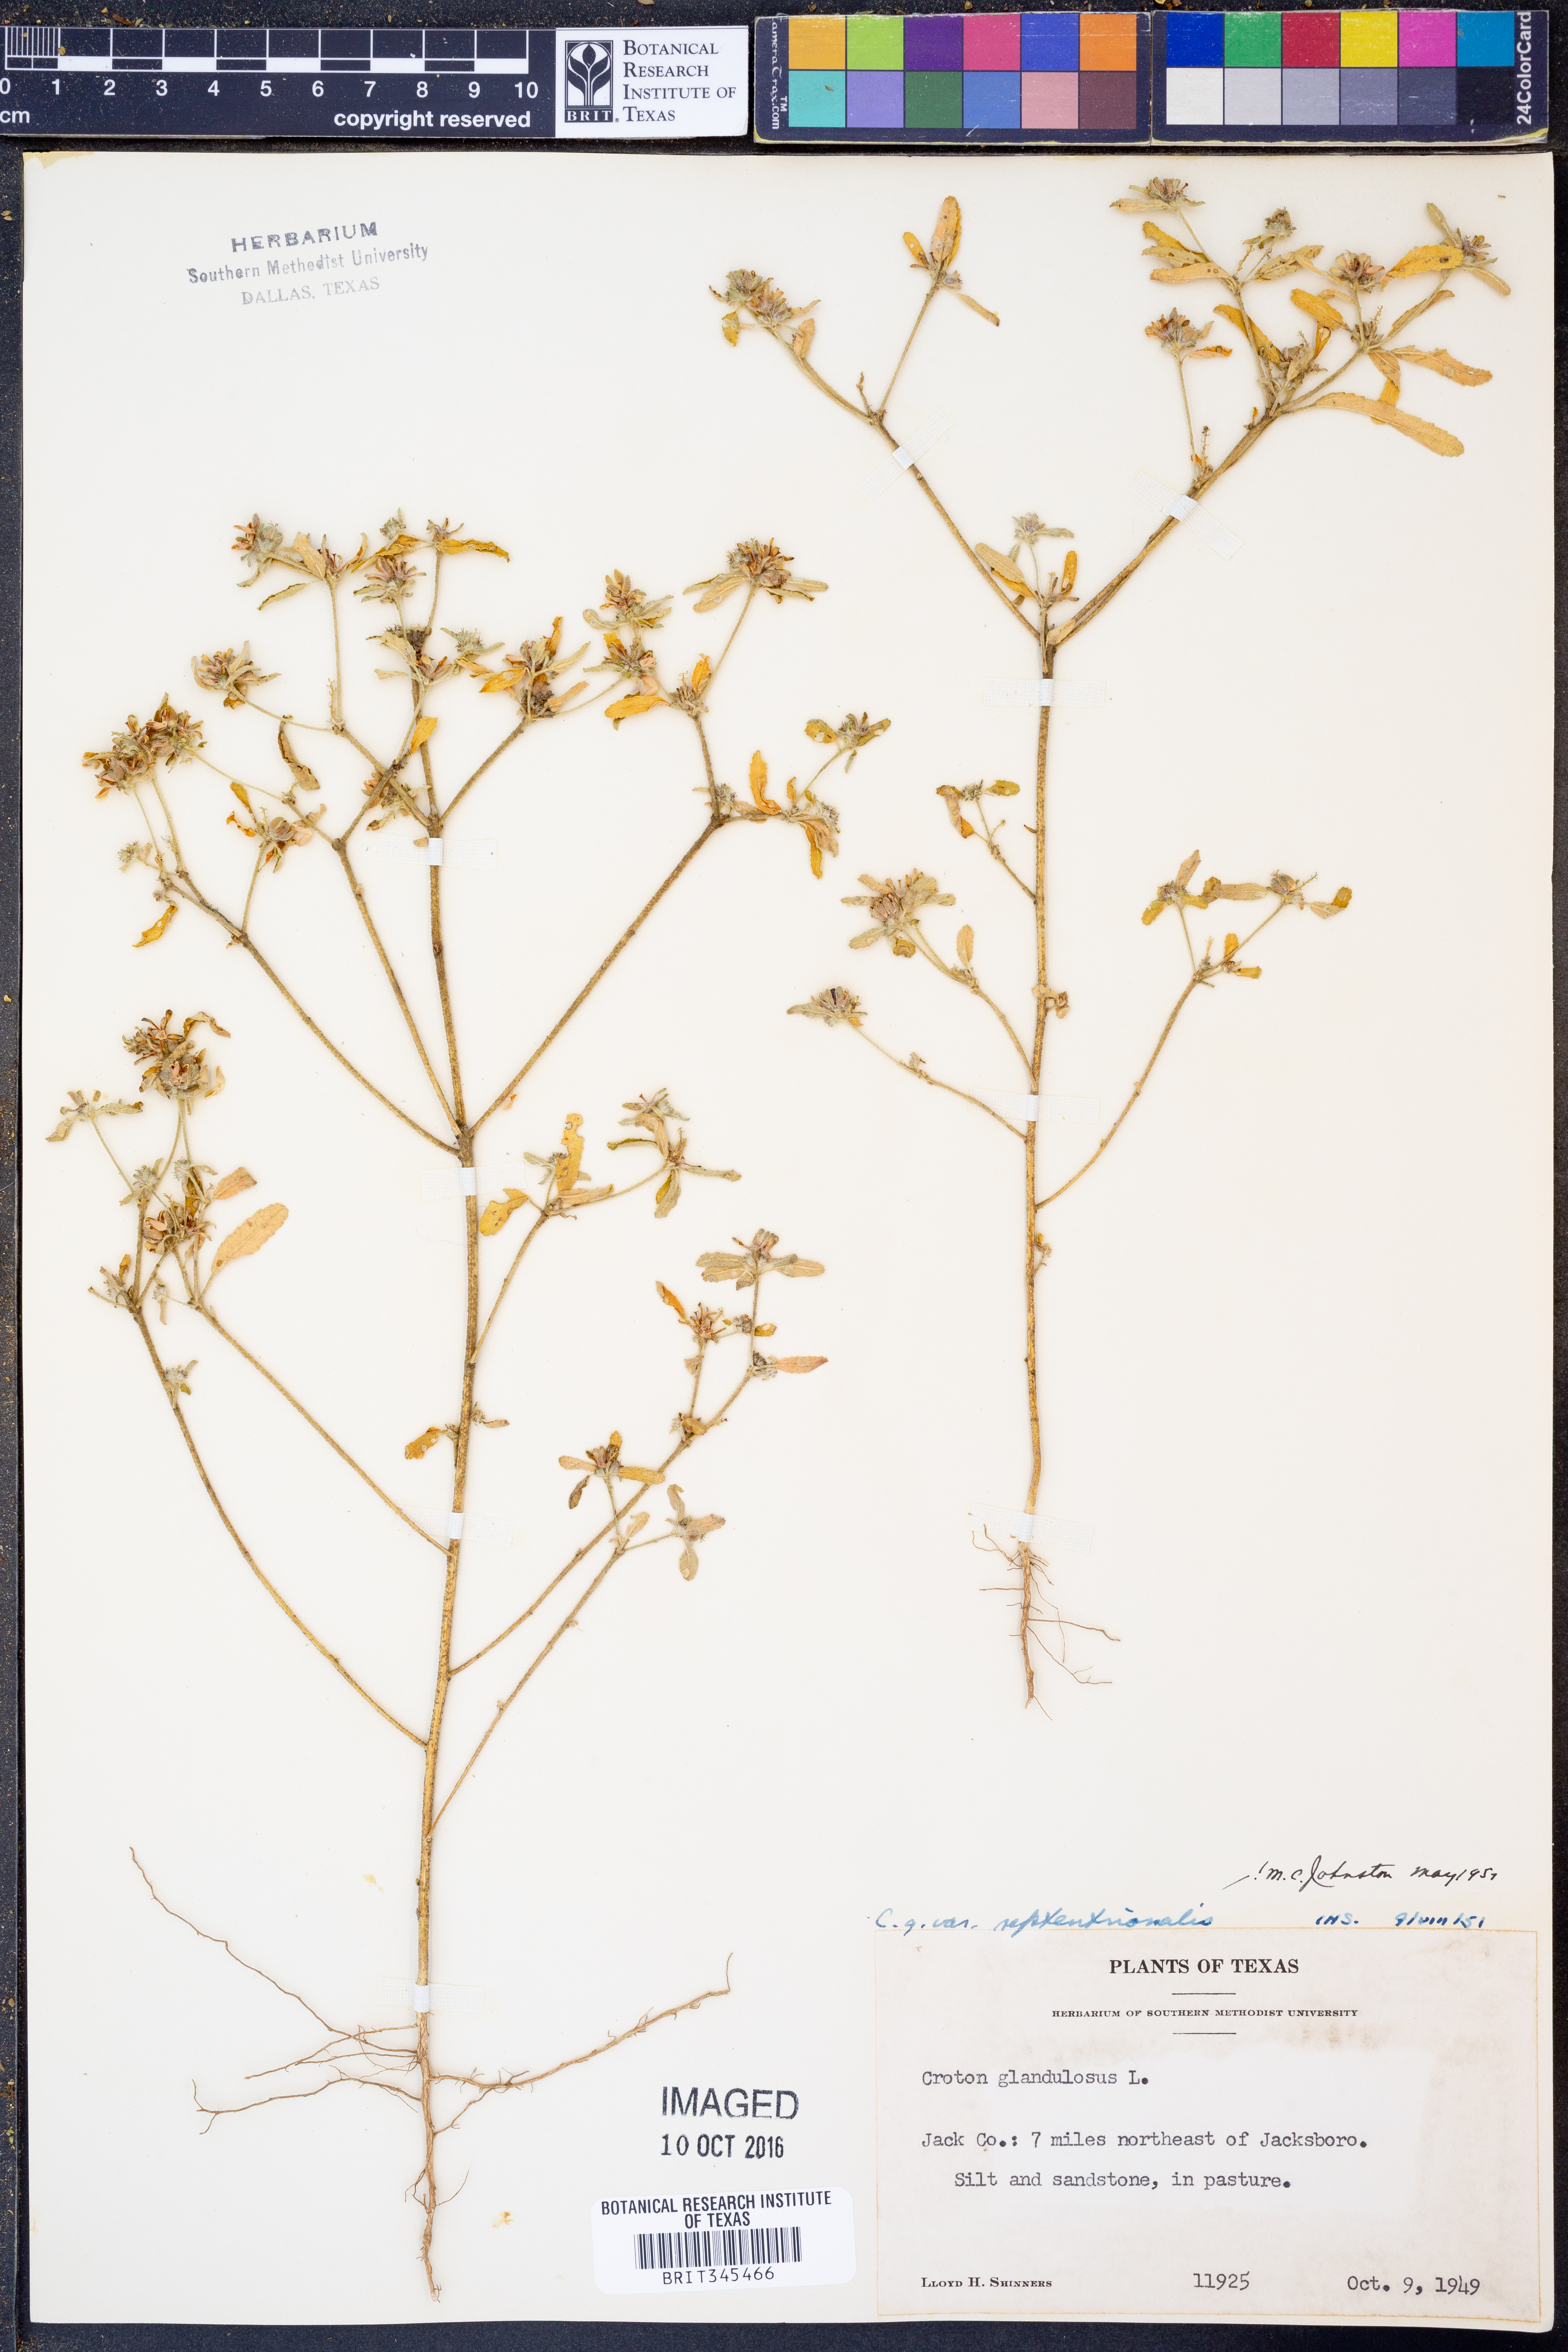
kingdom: Plantae
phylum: Tracheophyta
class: Magnoliopsida
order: Malpighiales
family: Euphorbiaceae
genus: Croton
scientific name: Croton glandulosus
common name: Tropic croton
